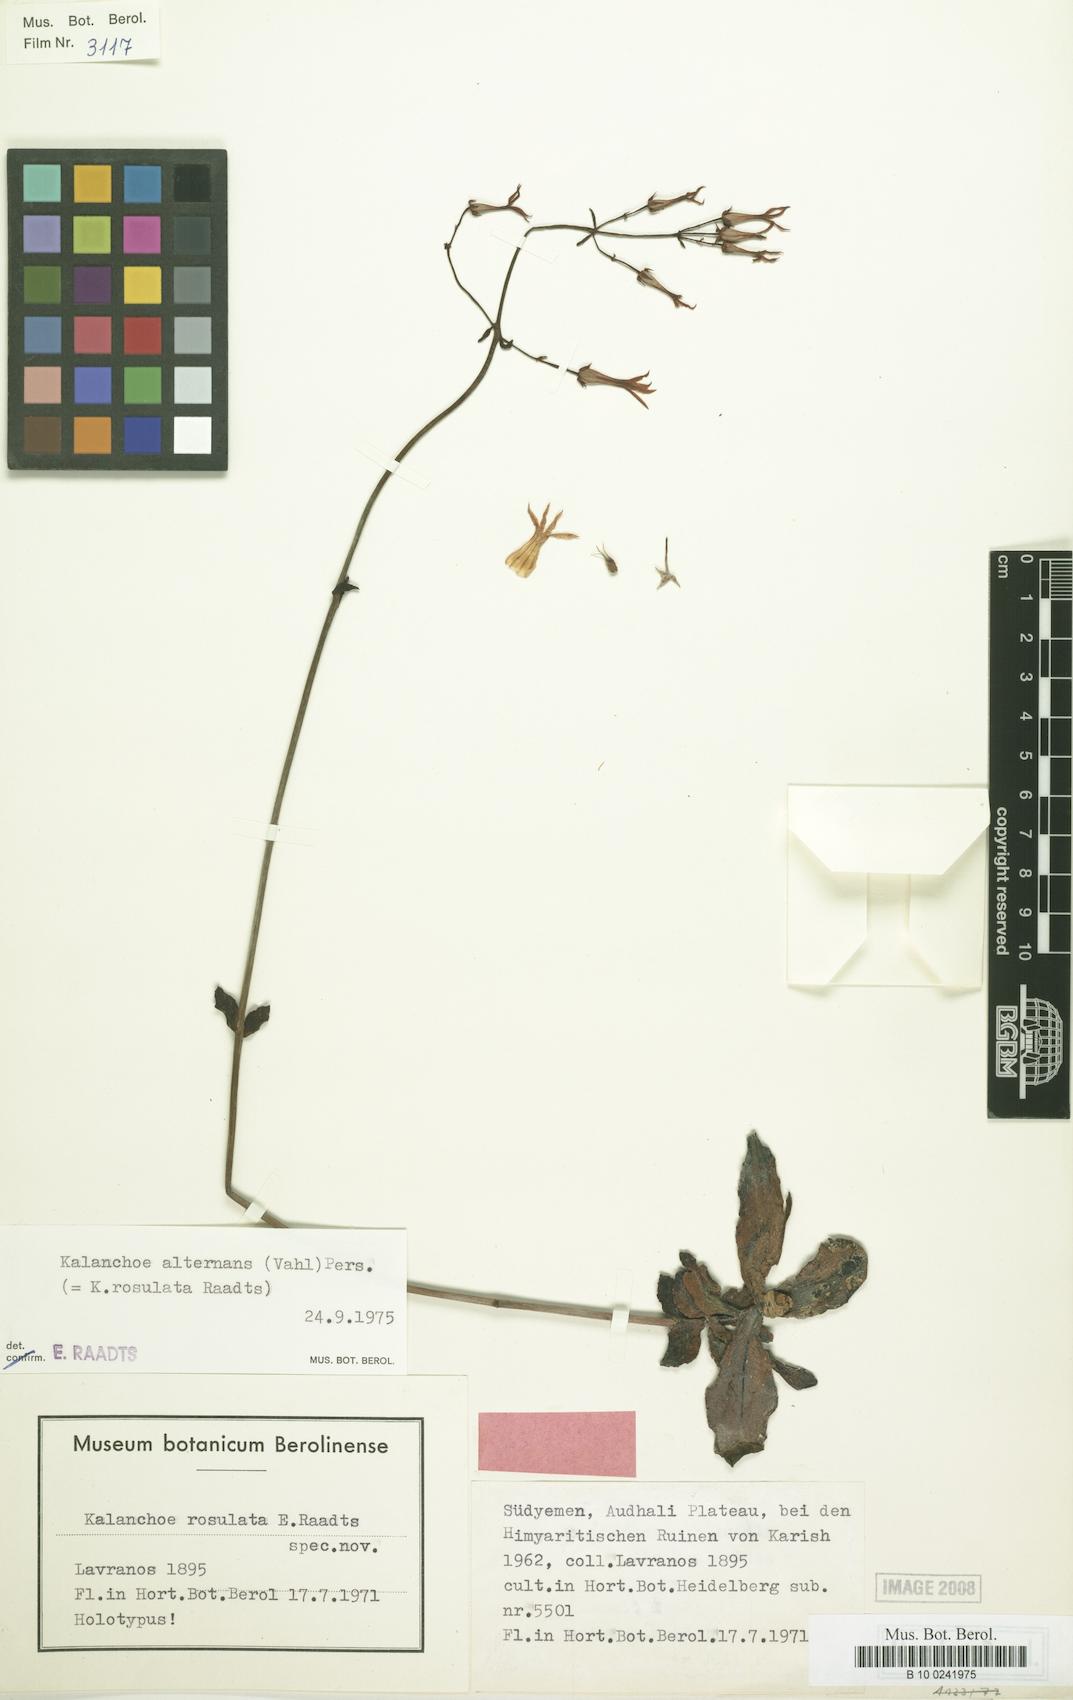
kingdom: Plantae
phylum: Tracheophyta
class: Magnoliopsida
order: Saxifragales
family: Crassulaceae
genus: Kalanchoe
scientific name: Kalanchoe alternans
